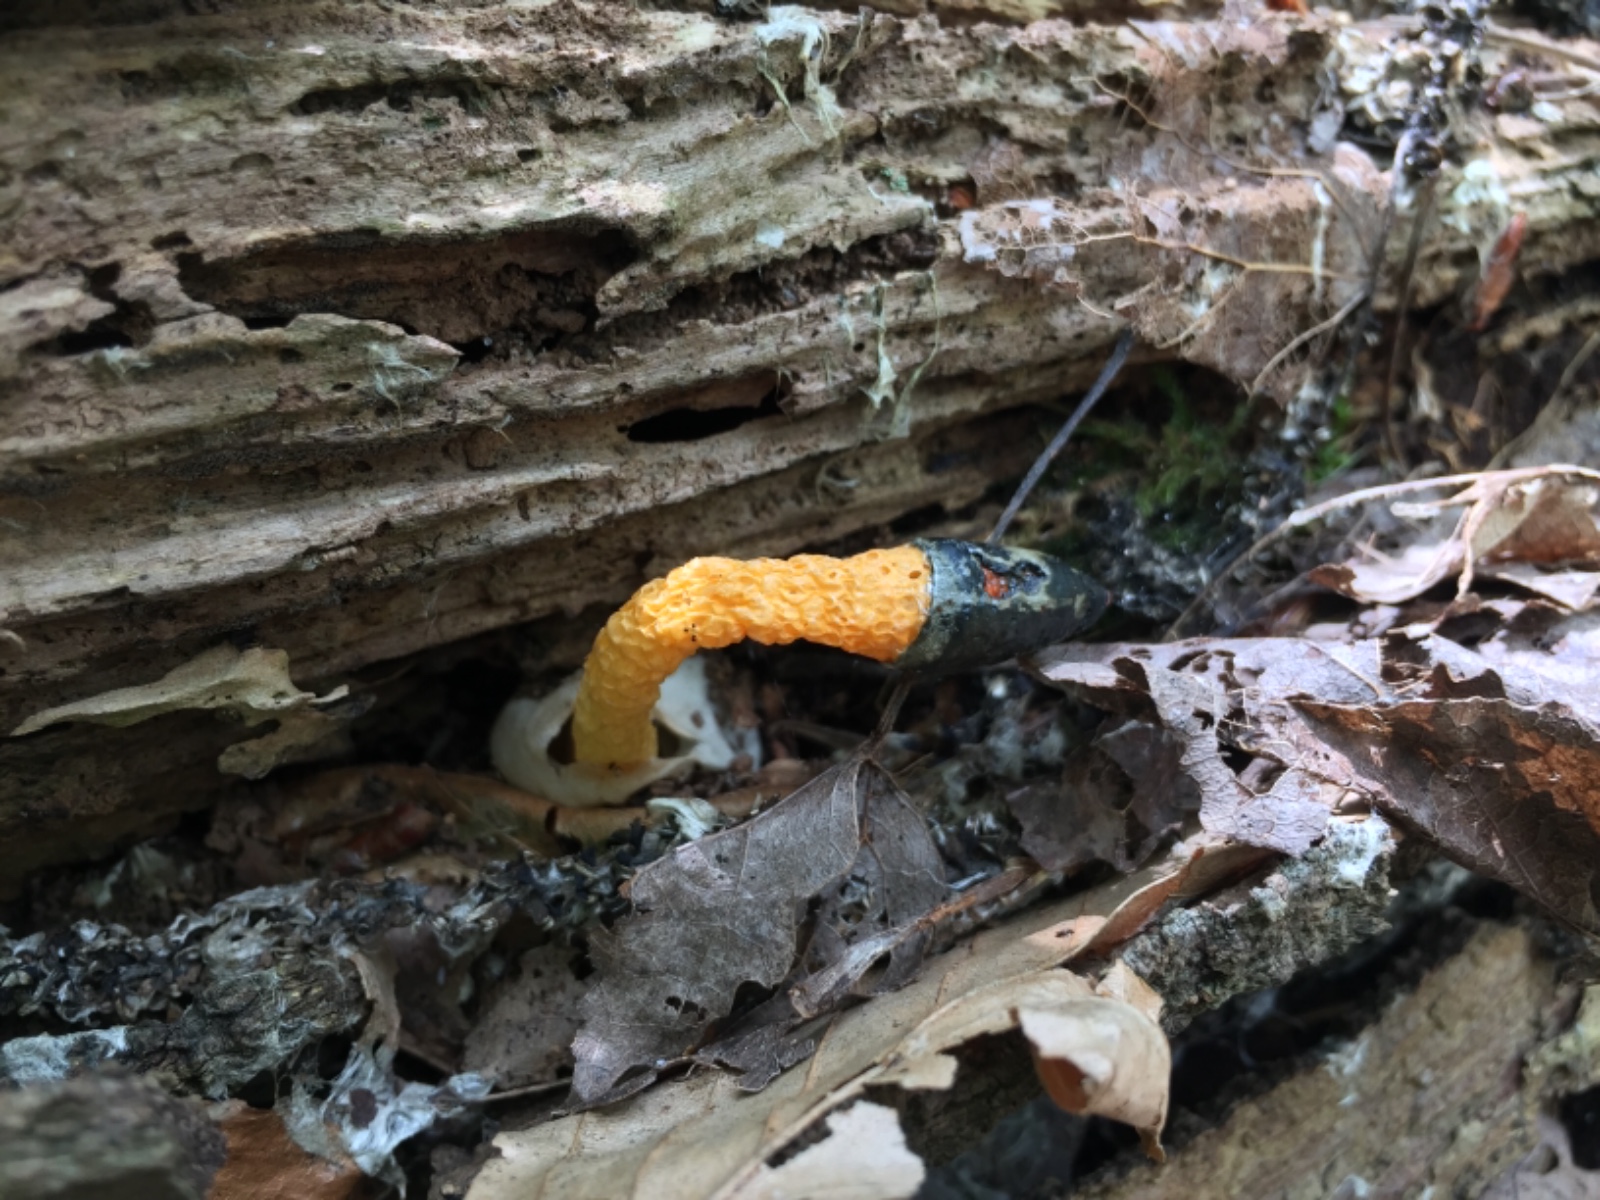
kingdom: Fungi
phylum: Basidiomycota
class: Agaricomycetes
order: Phallales
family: Phallaceae
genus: Mutinus
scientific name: Mutinus caninus
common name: hunde-stinksvamp
